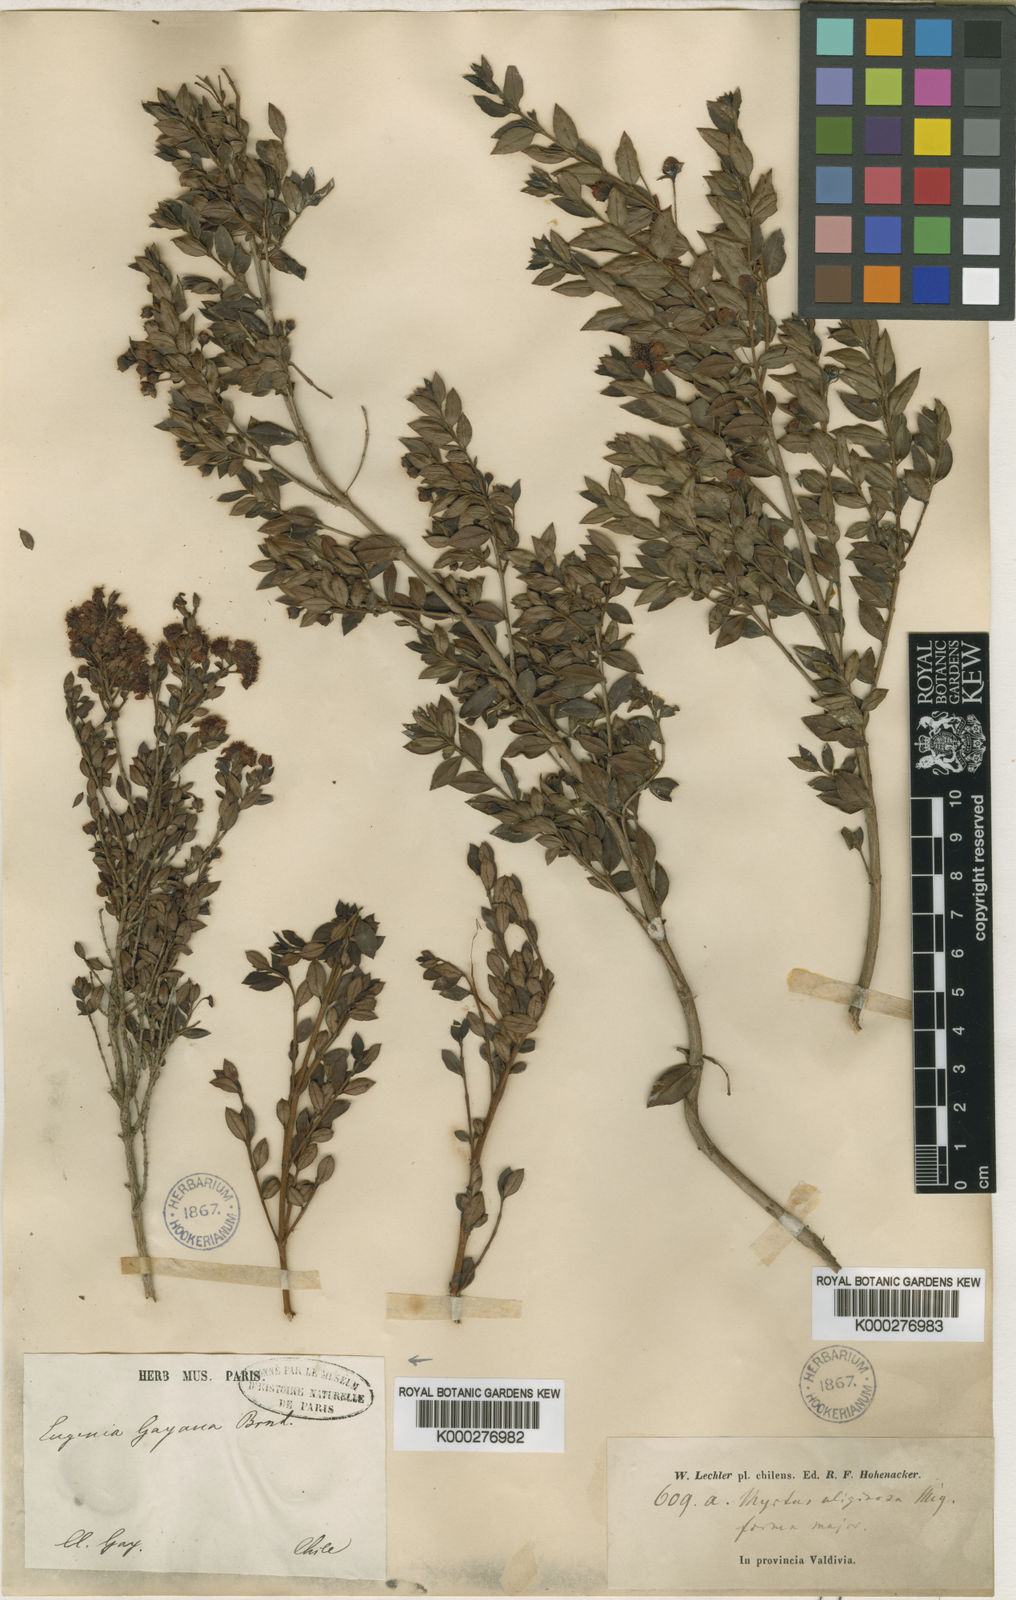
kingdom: Plantae
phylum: Tracheophyta
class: Magnoliopsida
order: Myrtales
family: Myrtaceae
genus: Luma
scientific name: Luma chequen
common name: Cheken
